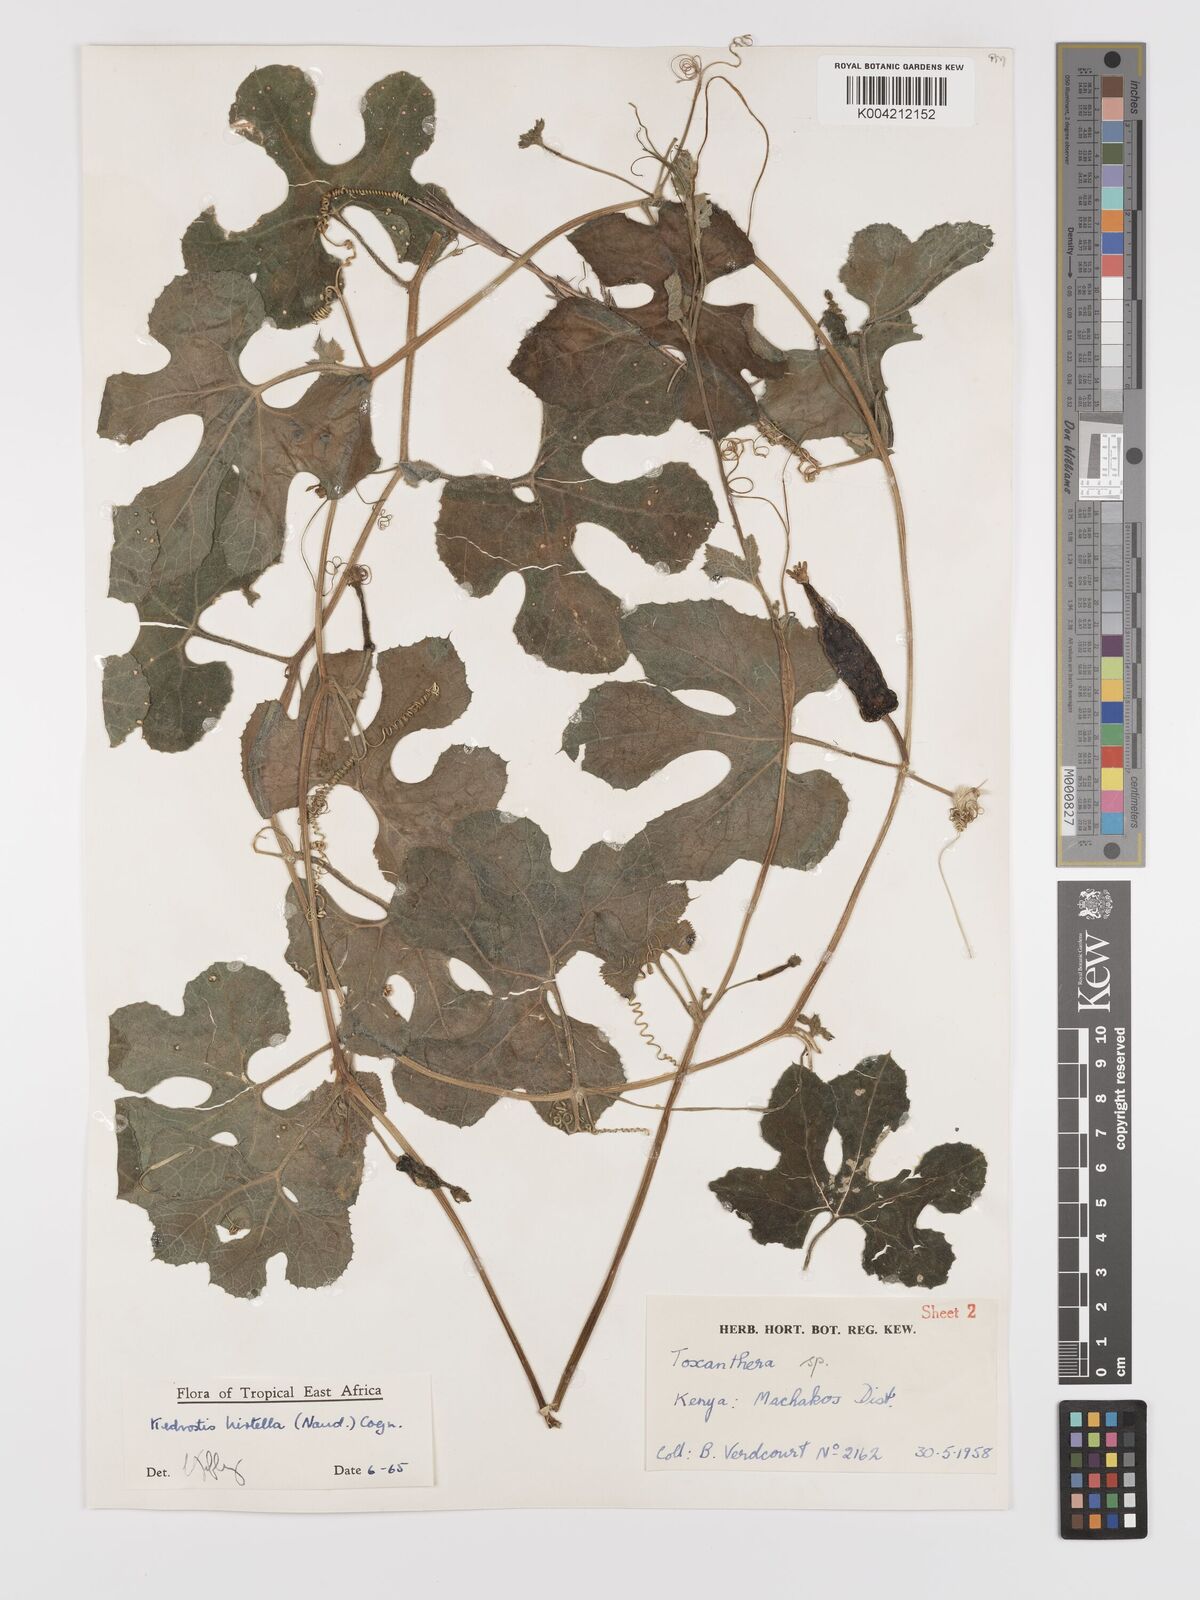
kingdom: Plantae
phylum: Tracheophyta
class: Magnoliopsida
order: Cucurbitales
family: Cucurbitaceae
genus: Kedrostis
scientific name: Kedrostis leloja
